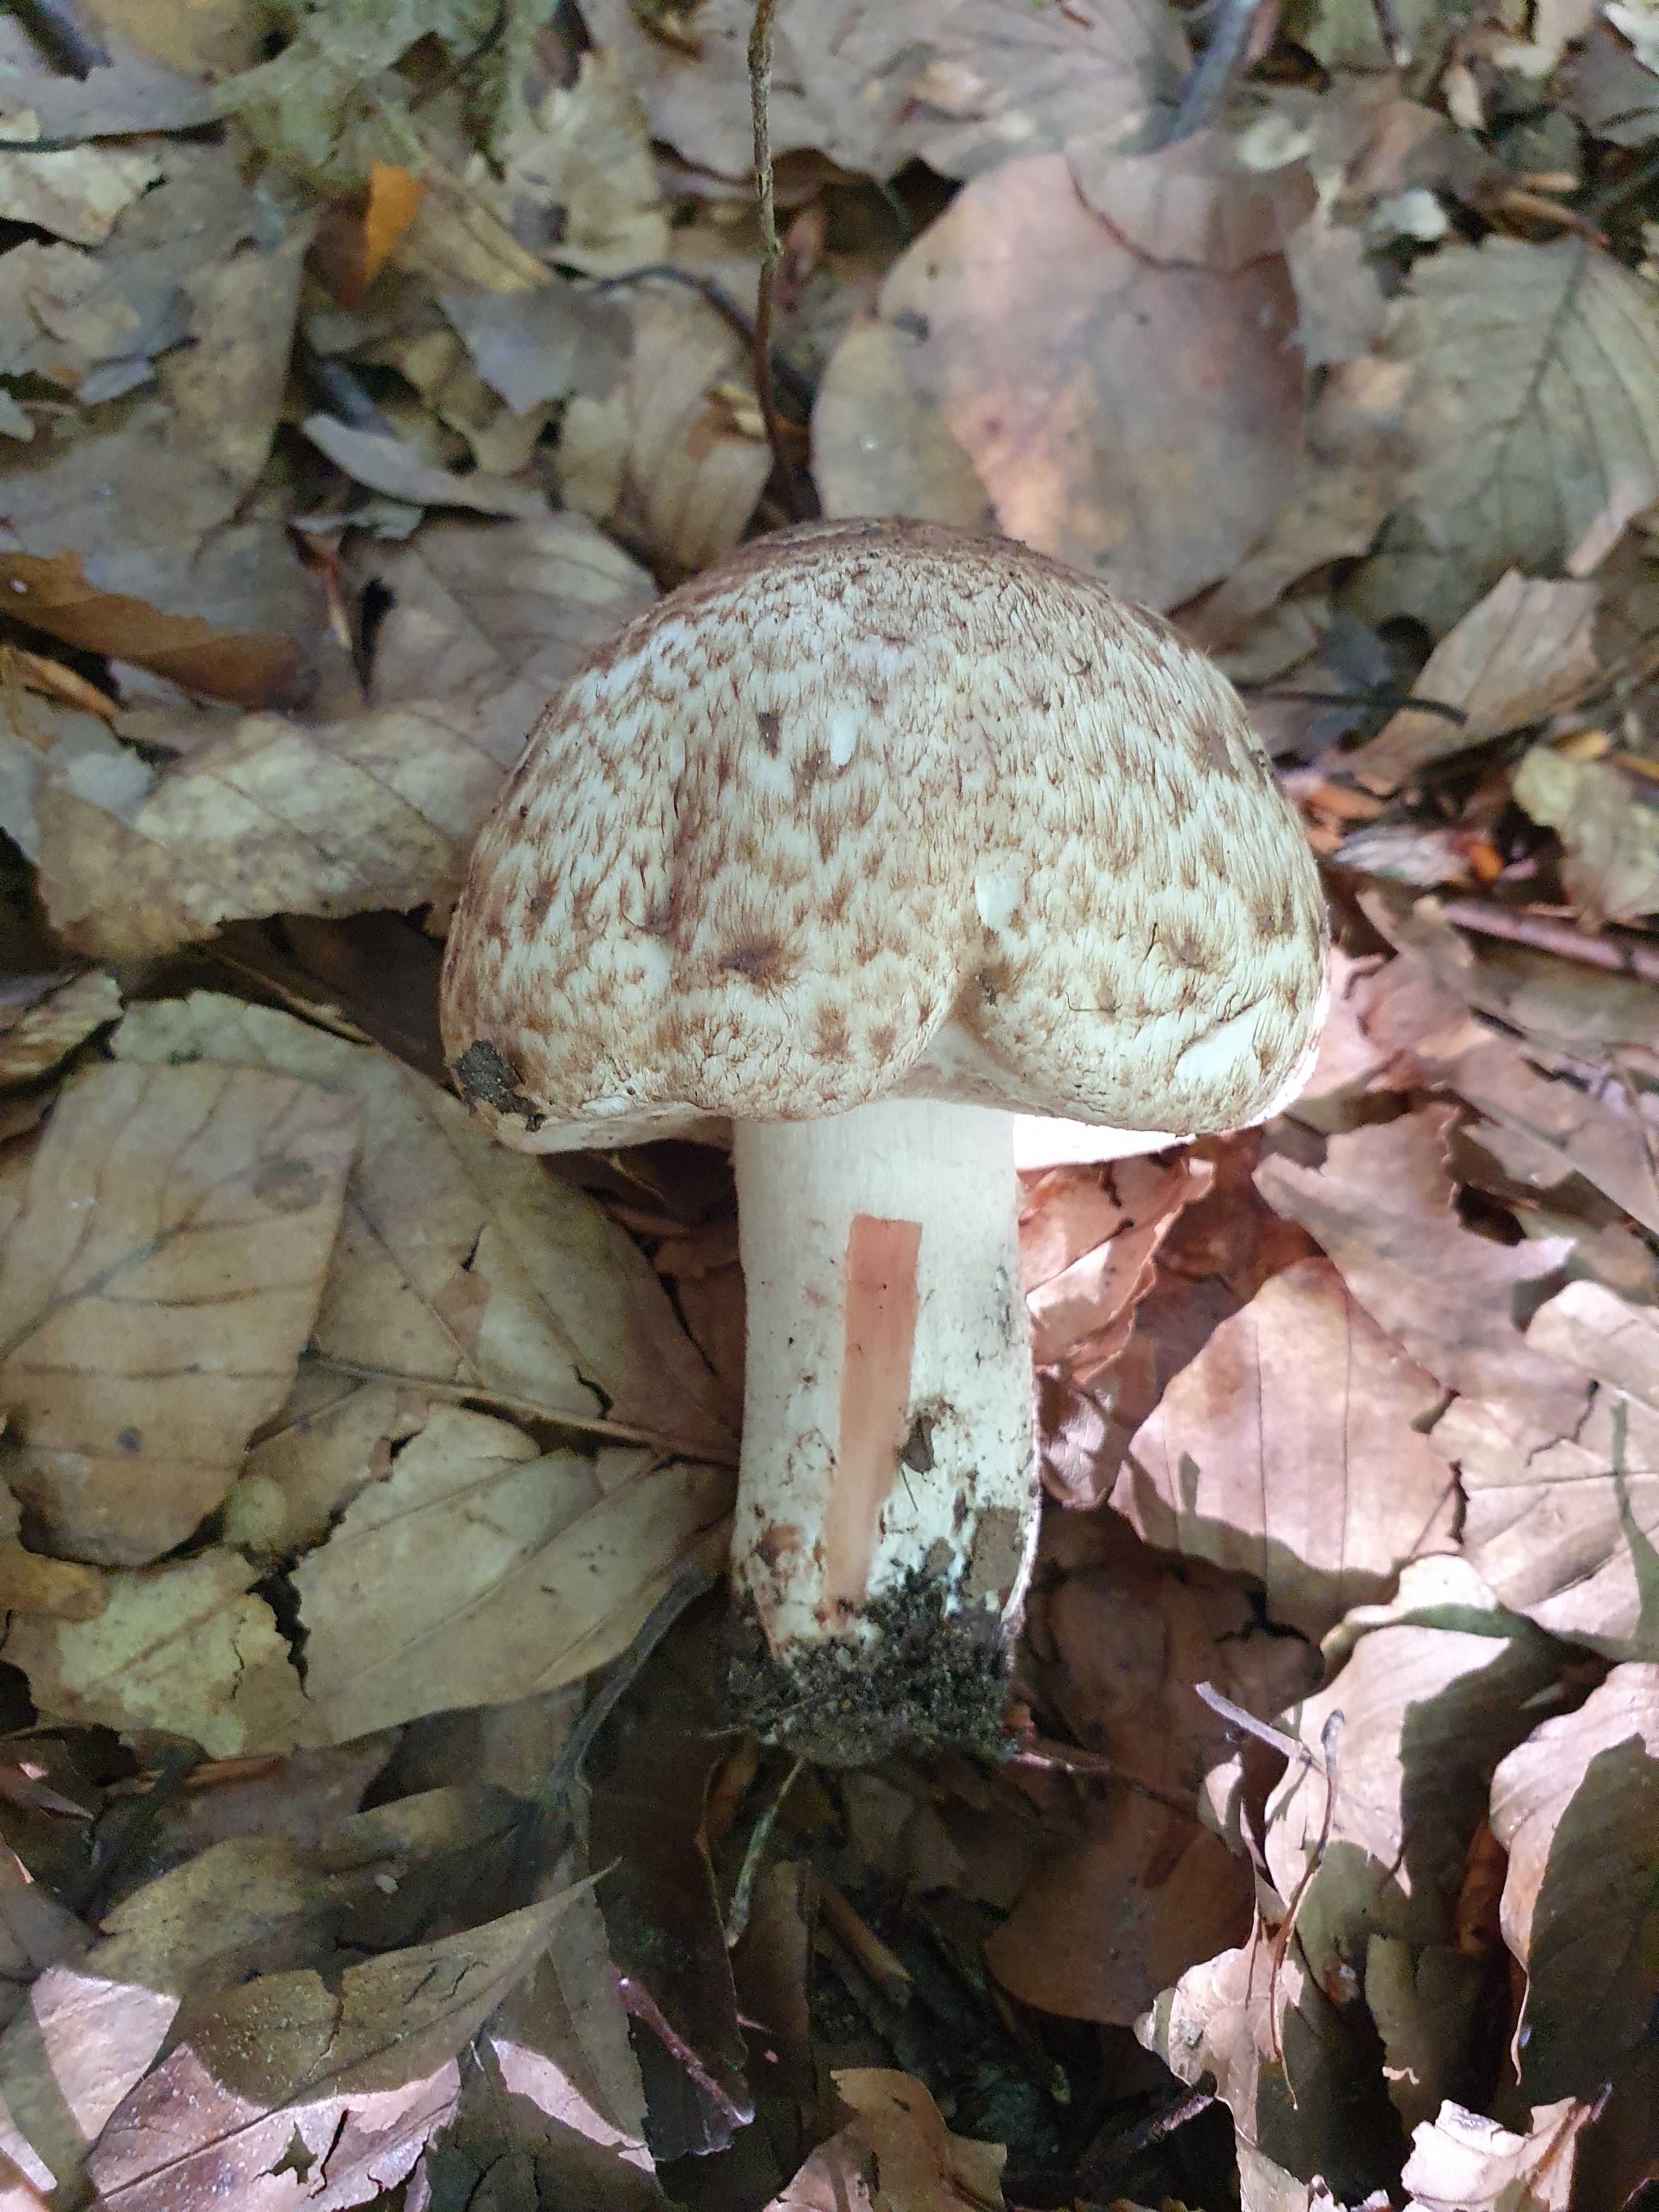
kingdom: Fungi
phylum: Basidiomycota
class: Agaricomycetes
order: Agaricales
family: Agaricaceae
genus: Agaricus
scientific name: Agaricus langei
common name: stor blod-champignon
